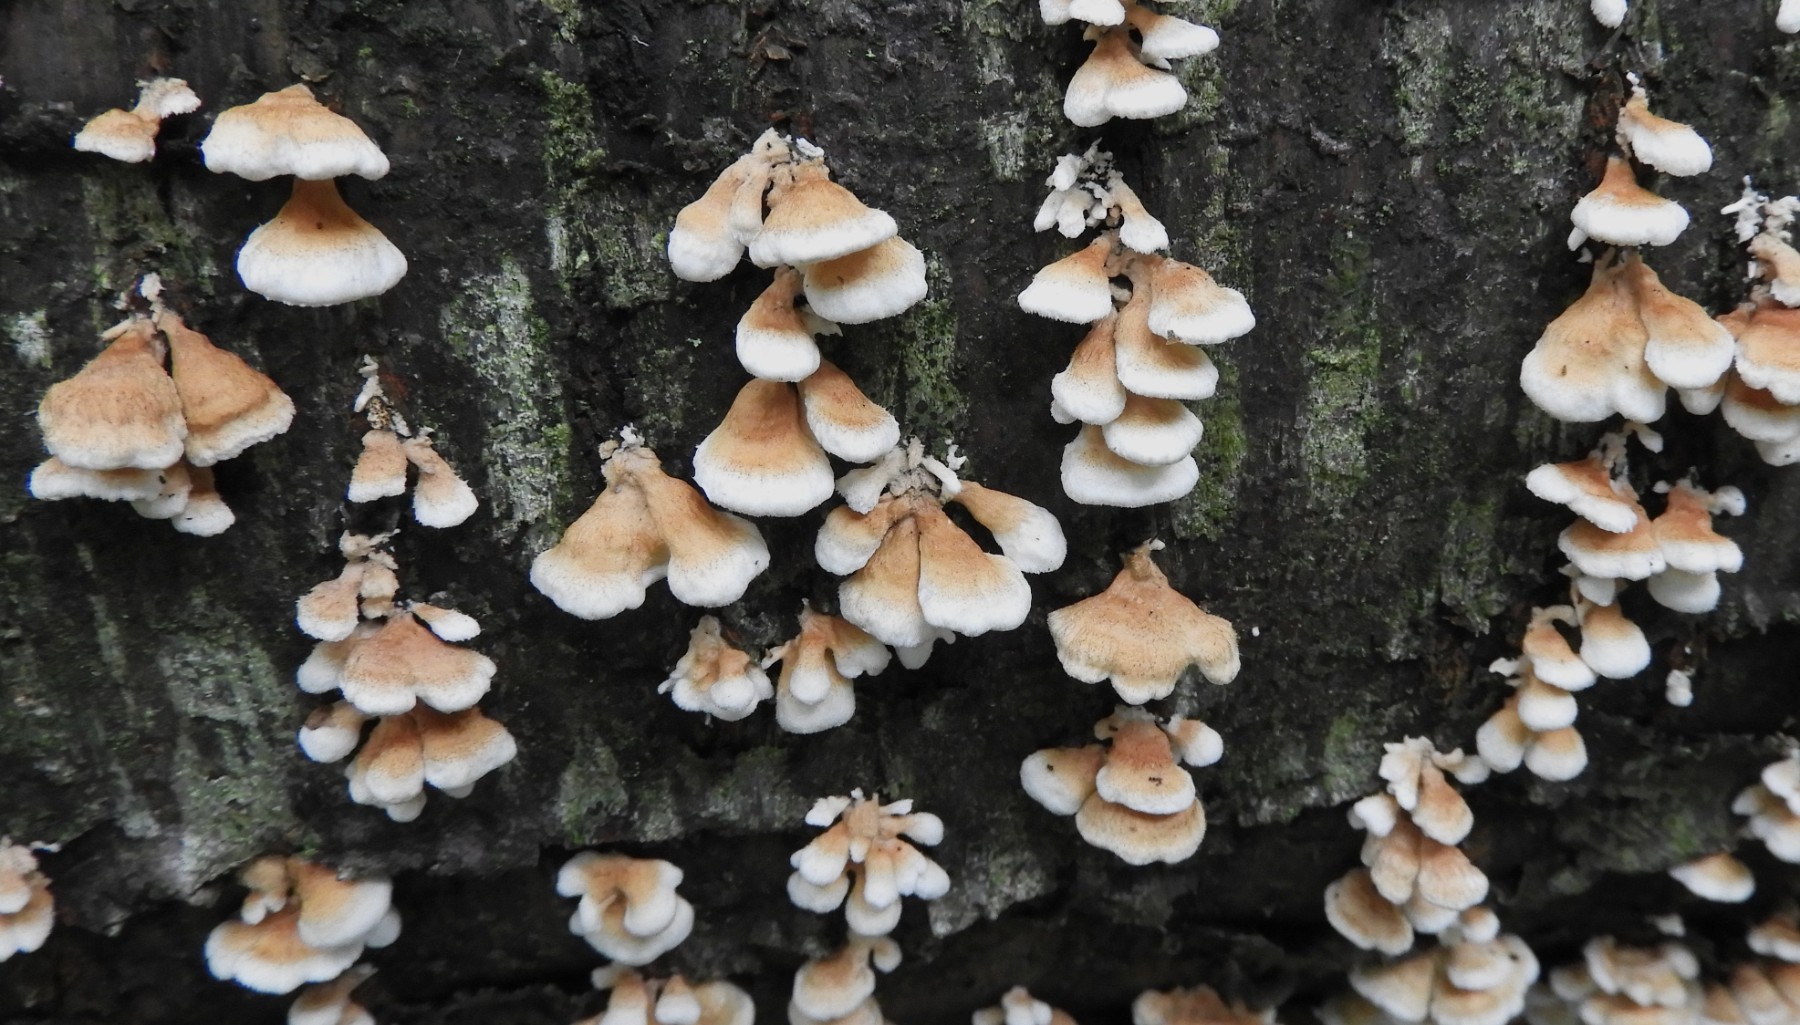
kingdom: Fungi
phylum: Basidiomycota
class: Agaricomycetes
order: Amylocorticiales
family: Amylocorticiaceae
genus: Plicaturopsis
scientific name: Plicaturopsis crispa
